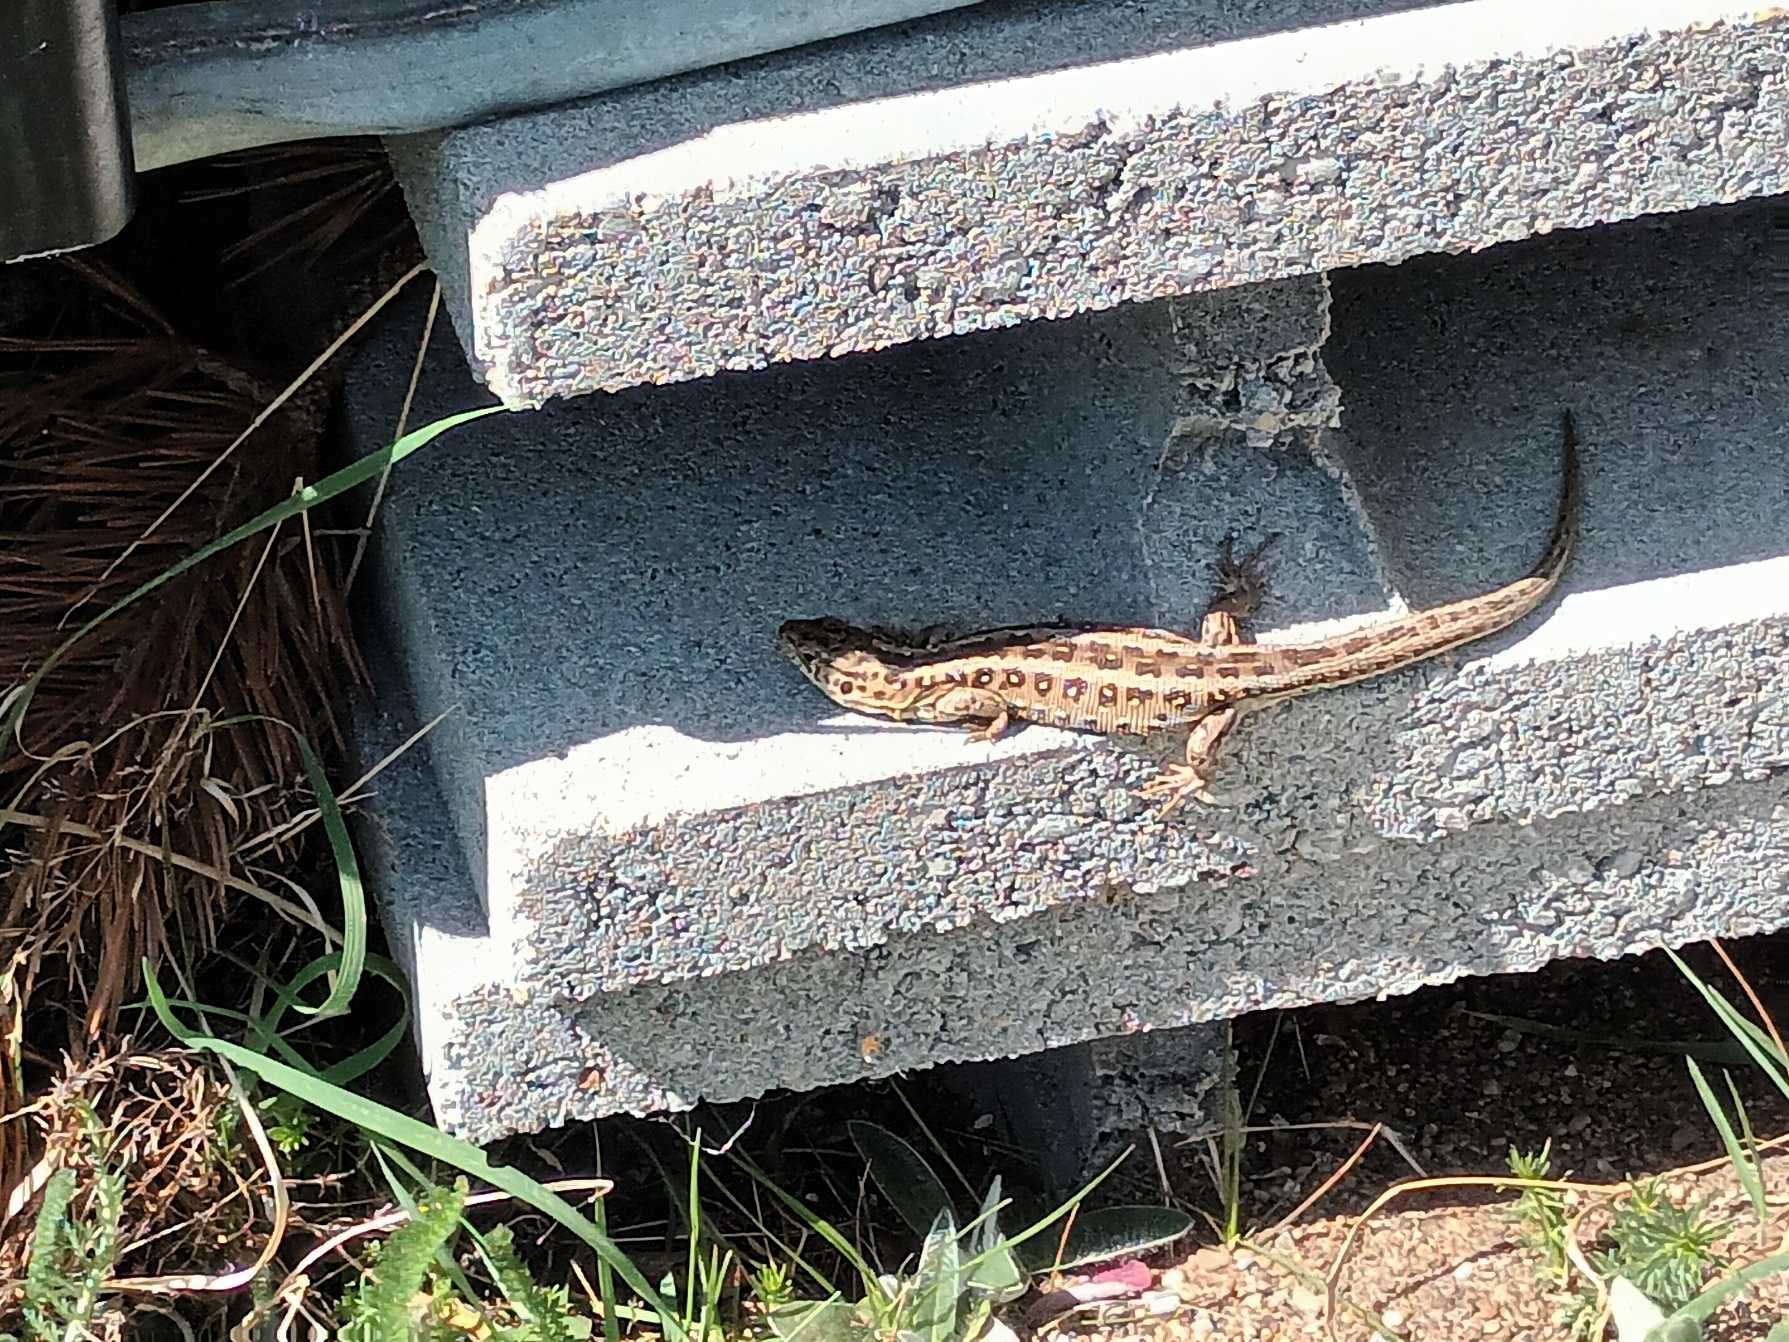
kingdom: Animalia
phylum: Chordata
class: Squamata
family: Lacertidae
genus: Lacerta
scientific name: Lacerta agilis
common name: Markfirben
